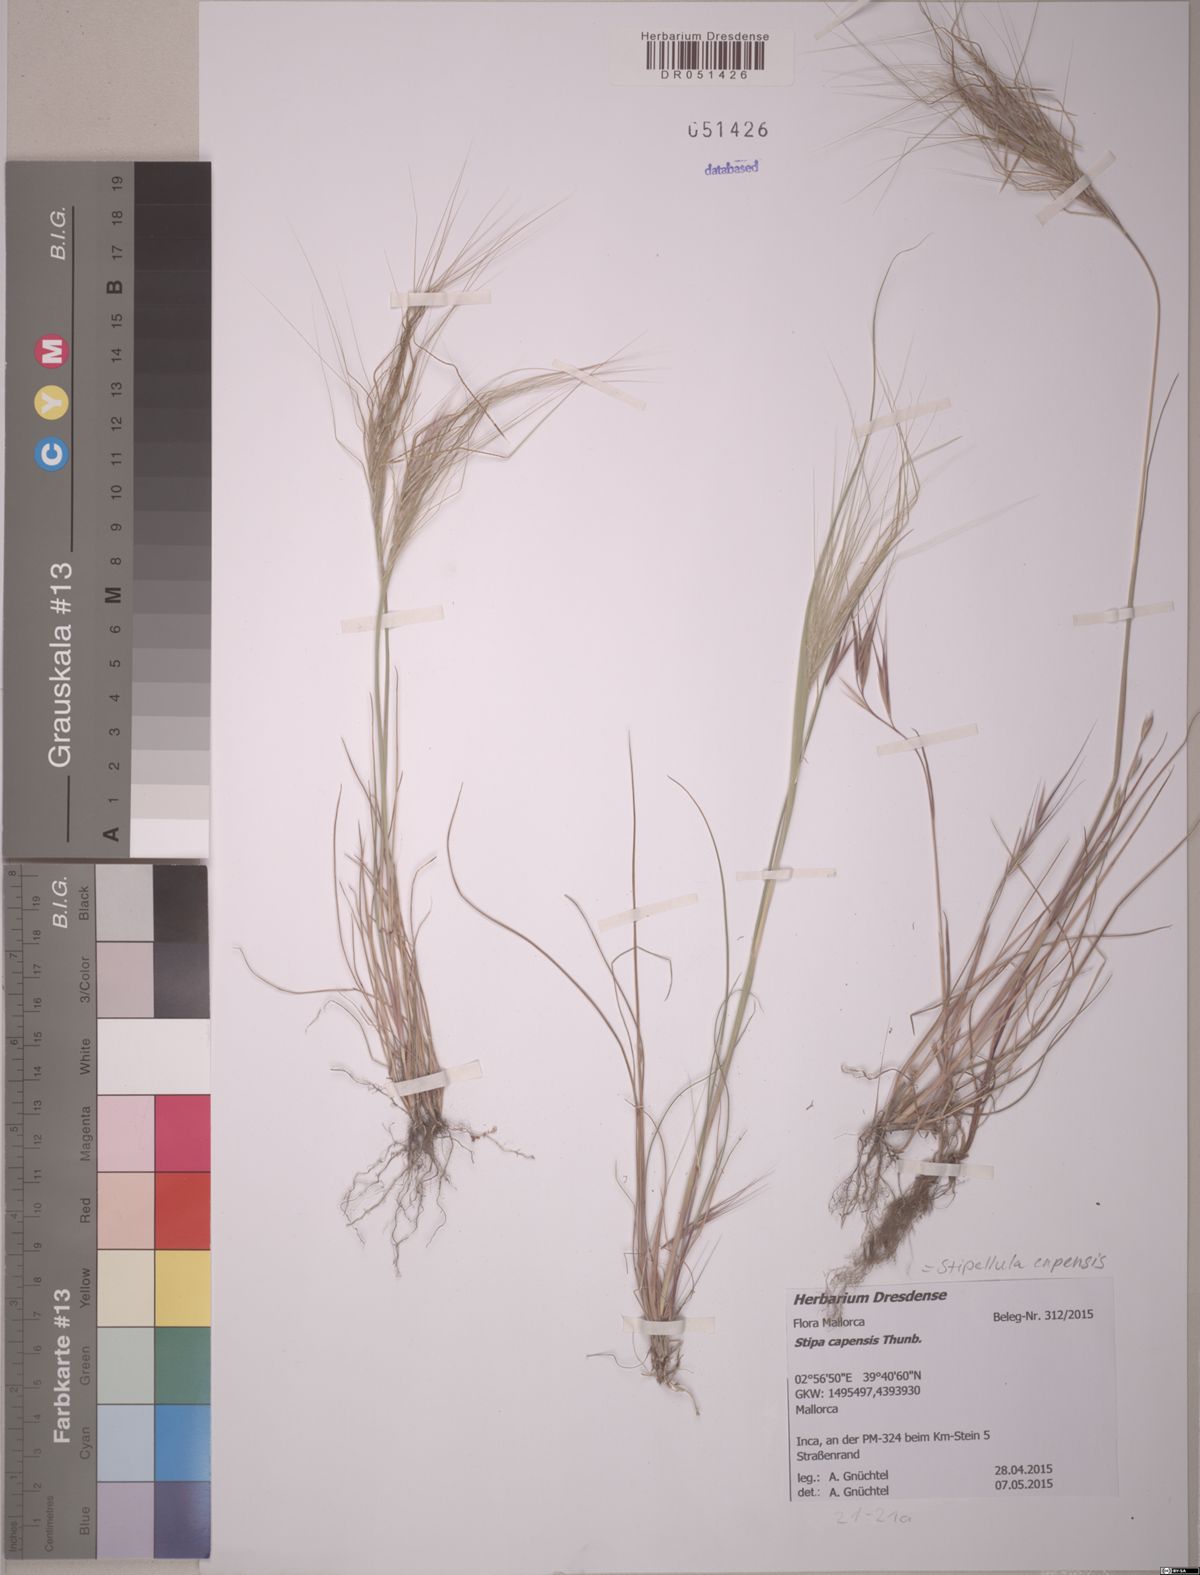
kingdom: Plantae
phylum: Tracheophyta
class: Liliopsida
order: Poales
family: Poaceae
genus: Stipellula
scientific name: Stipellula capensis
